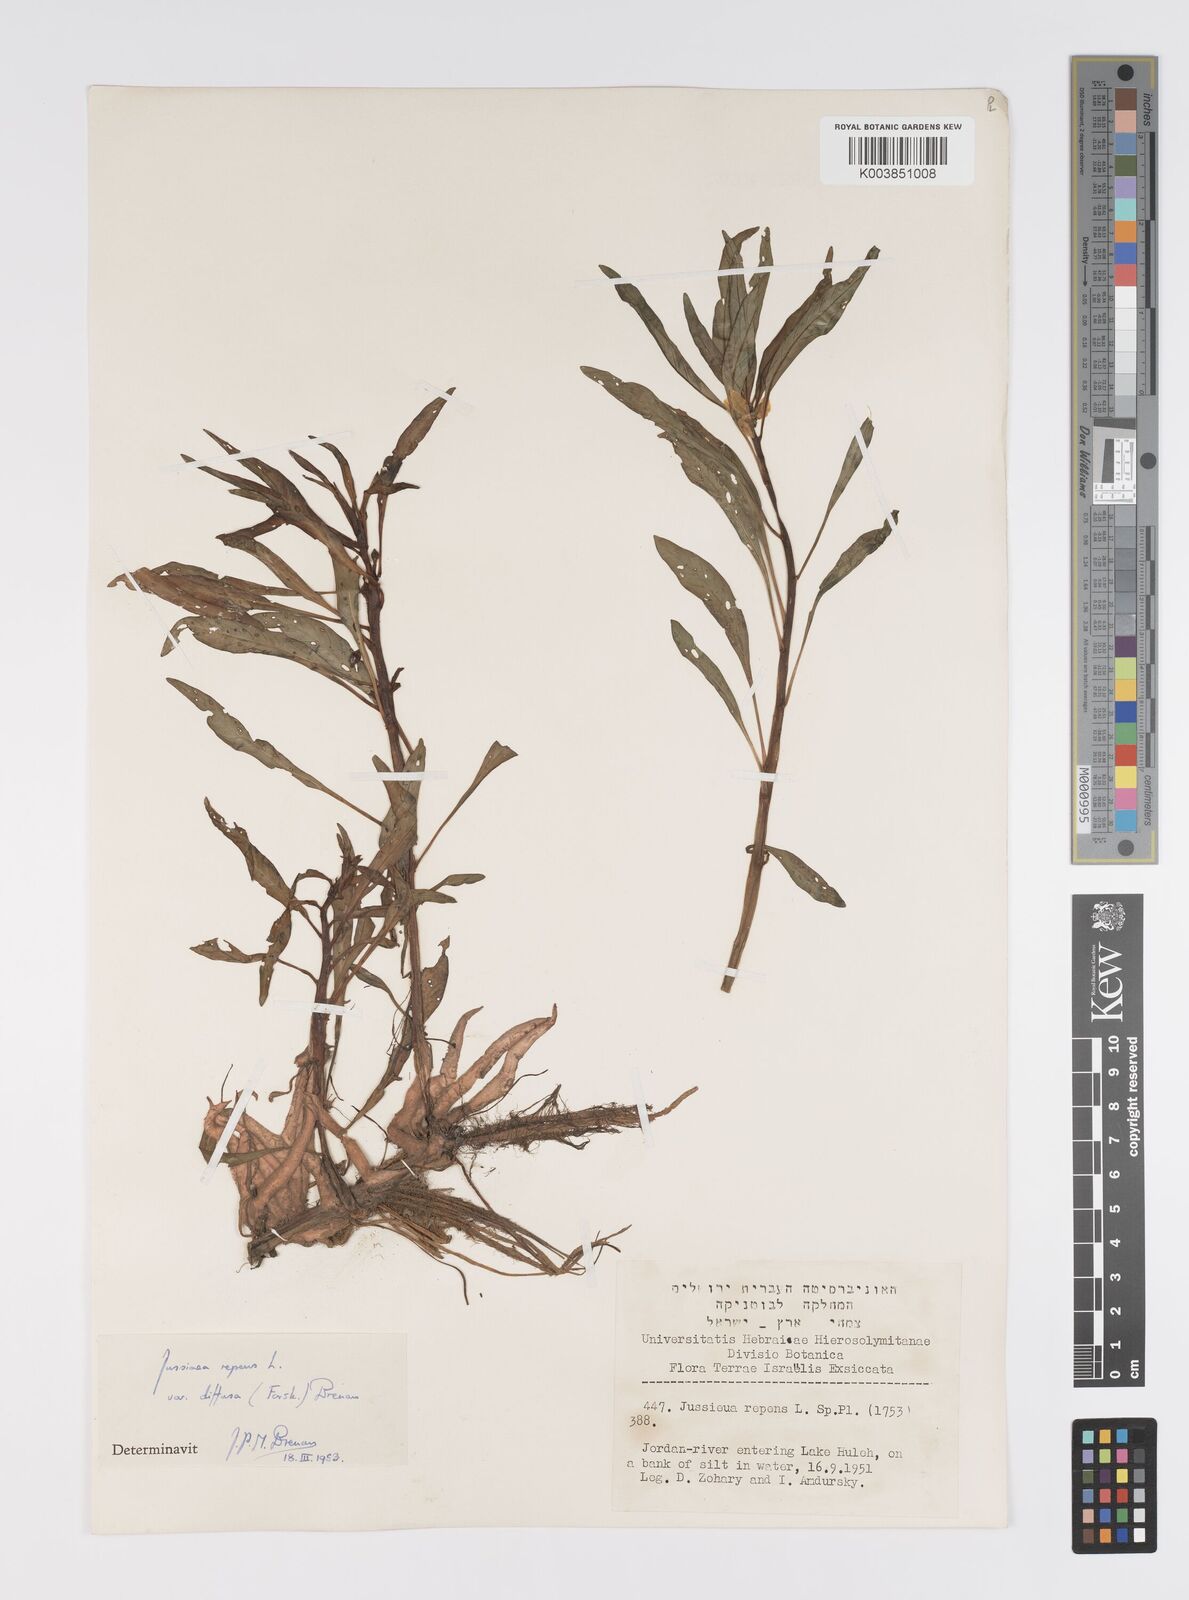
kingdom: Plantae
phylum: Tracheophyta
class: Magnoliopsida
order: Myrtales
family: Onagraceae
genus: Ludwigia
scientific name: Ludwigia adscendens
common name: Creeping water primrose
